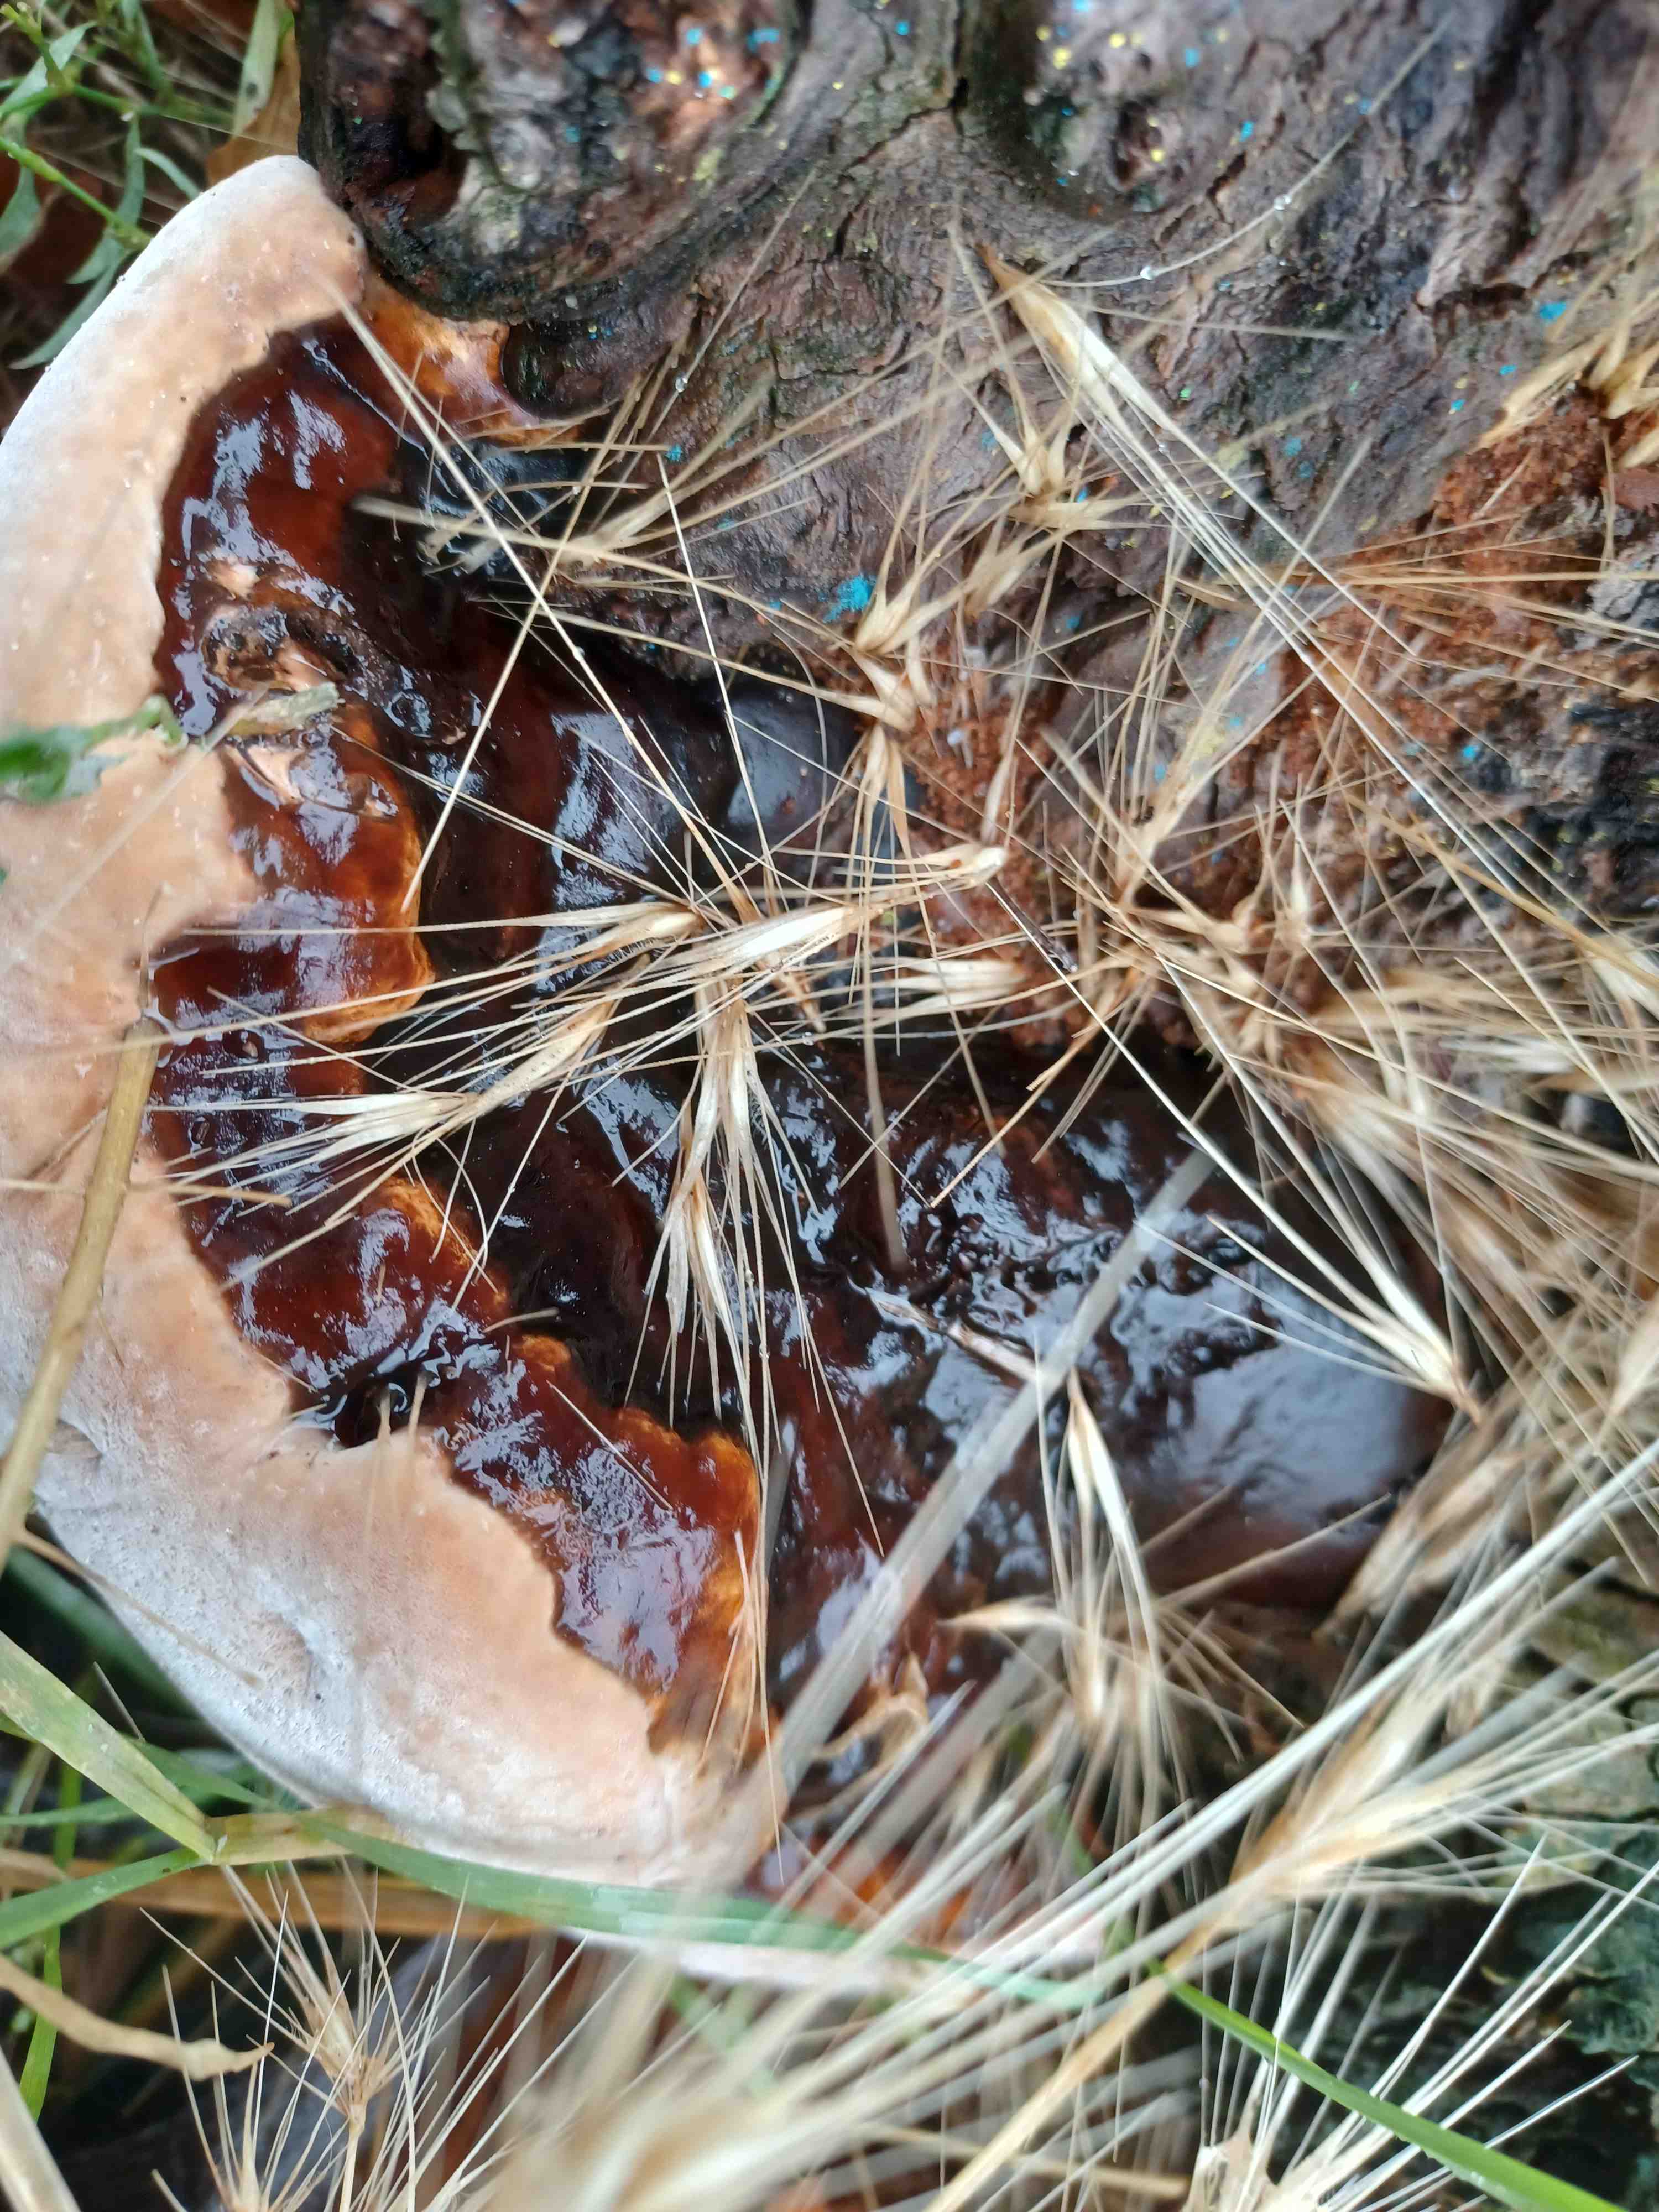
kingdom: Fungi
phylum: Basidiomycota
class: Agaricomycetes
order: Polyporales
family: Polyporaceae
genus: Ganoderma
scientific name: Ganoderma applanatum
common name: flad lakporesvamp
